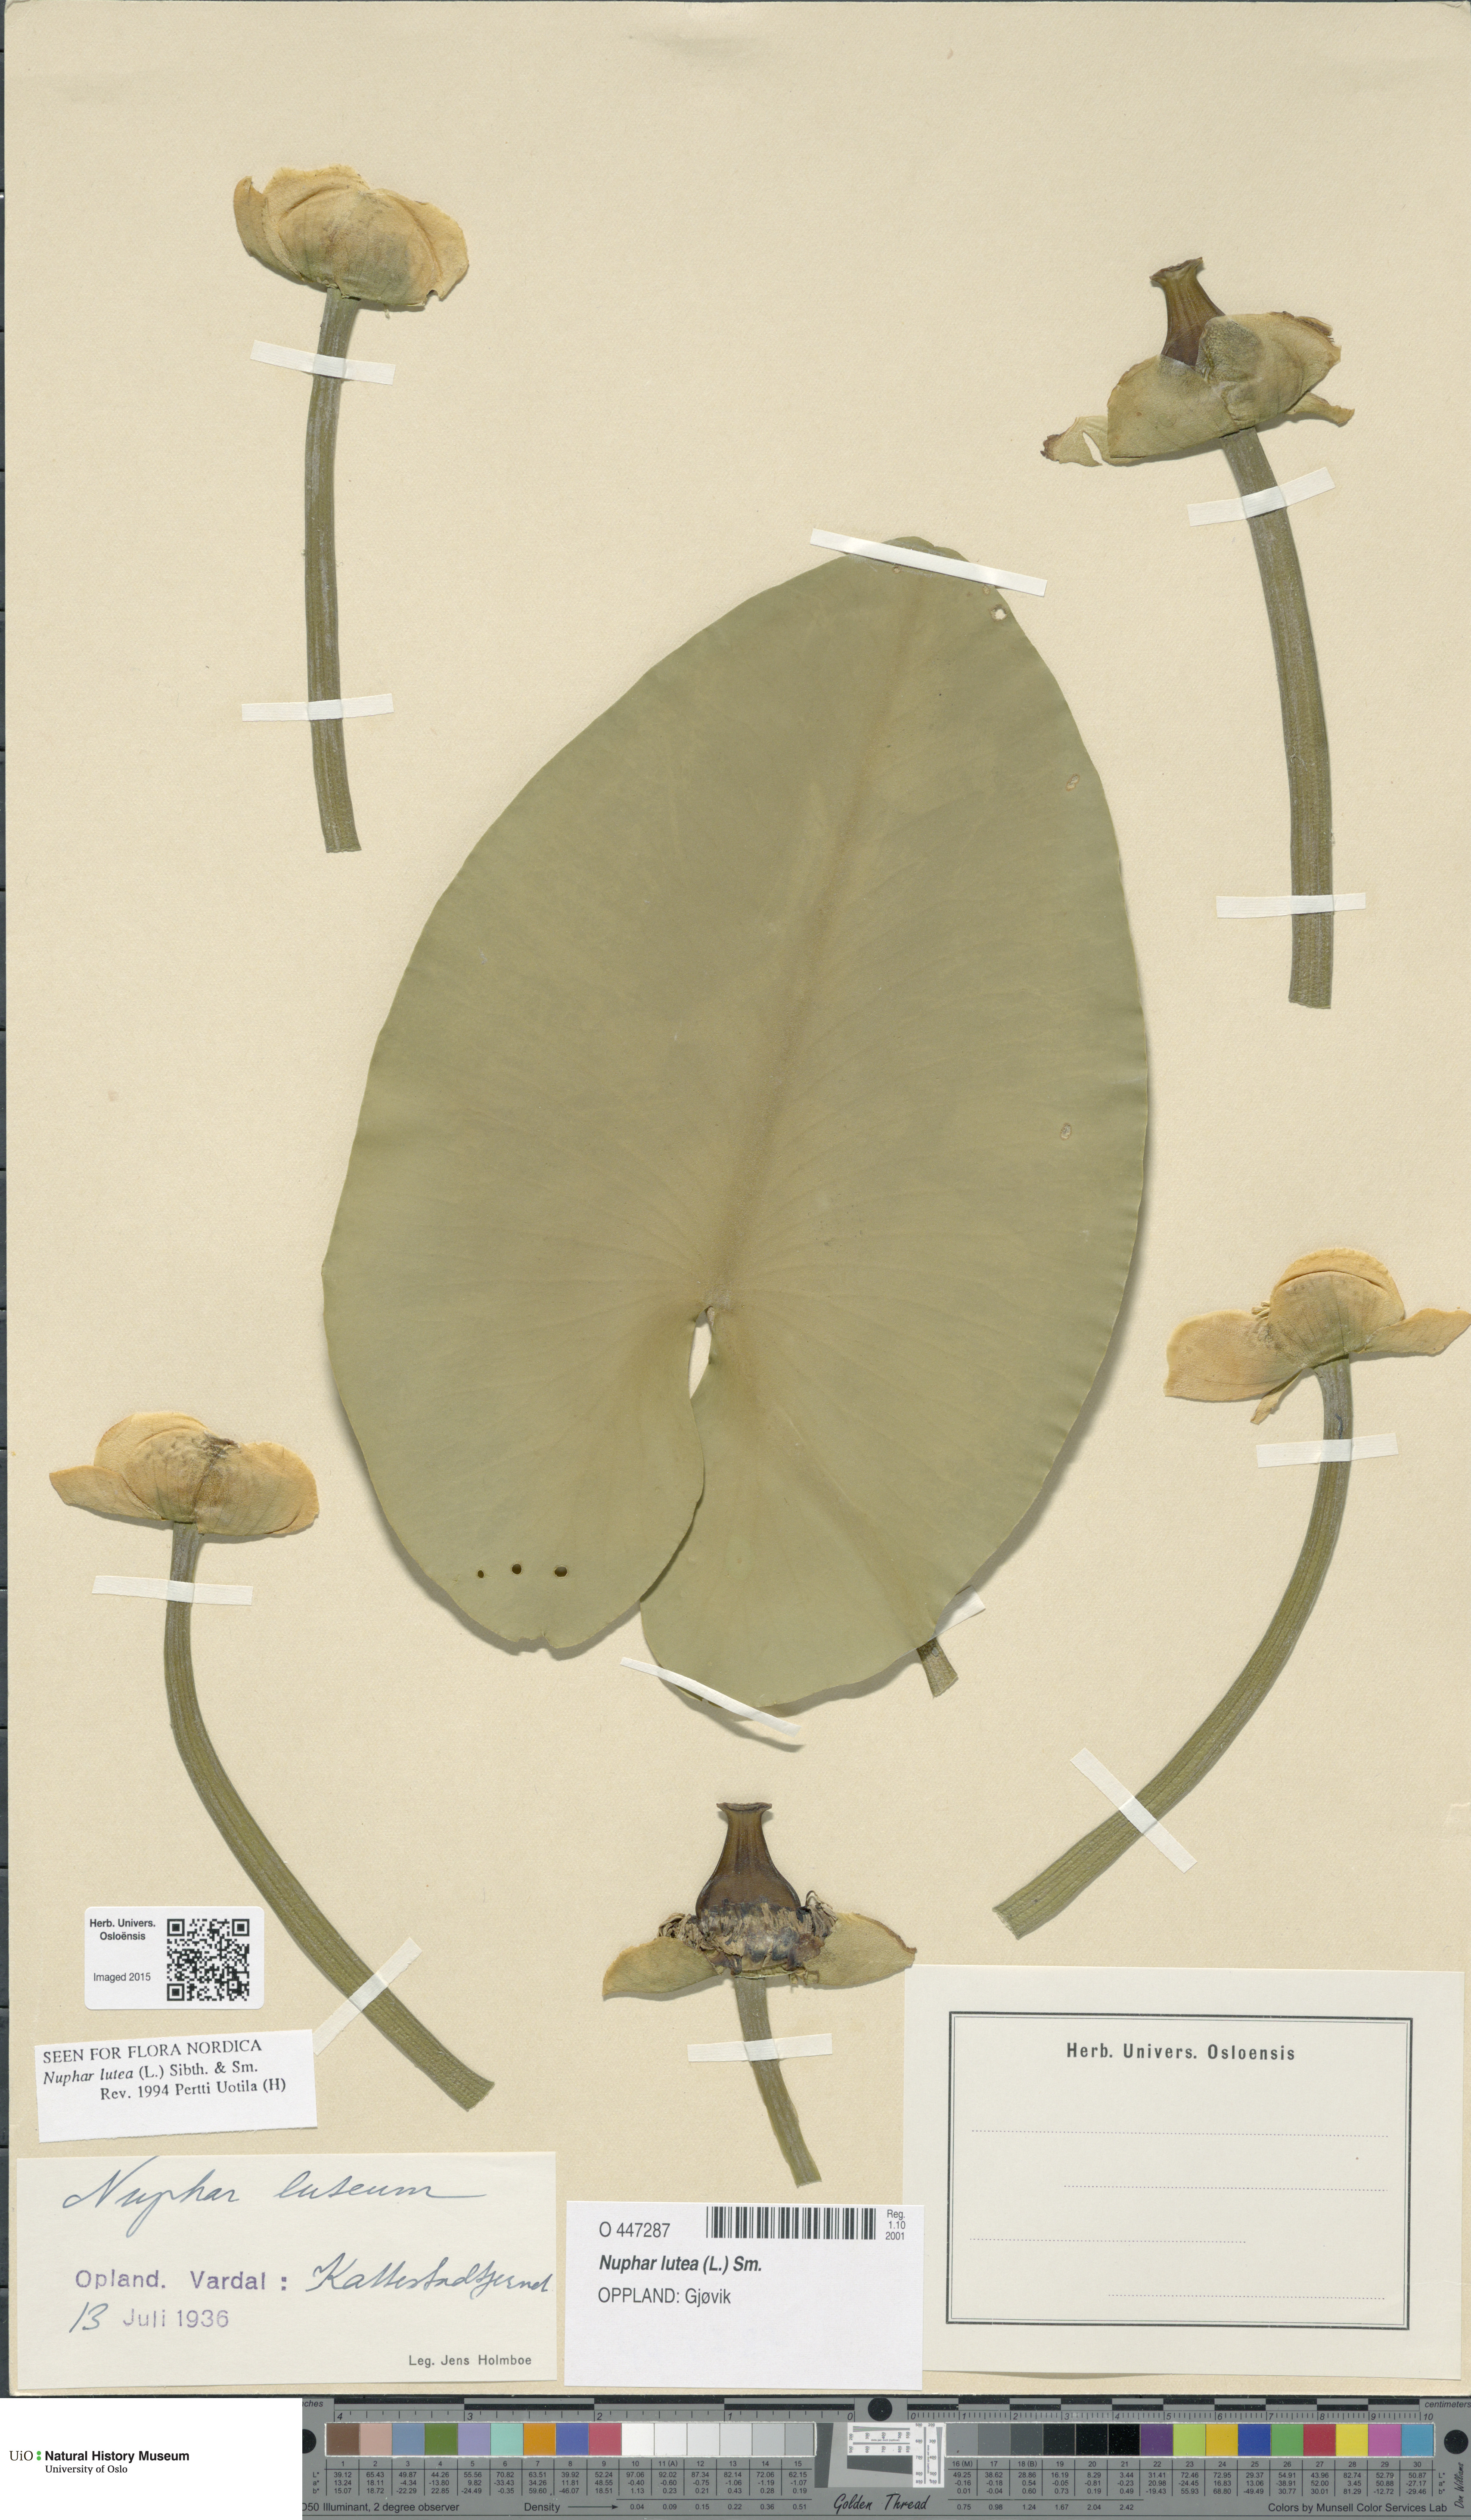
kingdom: Plantae
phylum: Tracheophyta
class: Magnoliopsida
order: Nymphaeales
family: Nymphaeaceae
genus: Nuphar
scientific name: Nuphar lutea
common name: Yellow water-lily
